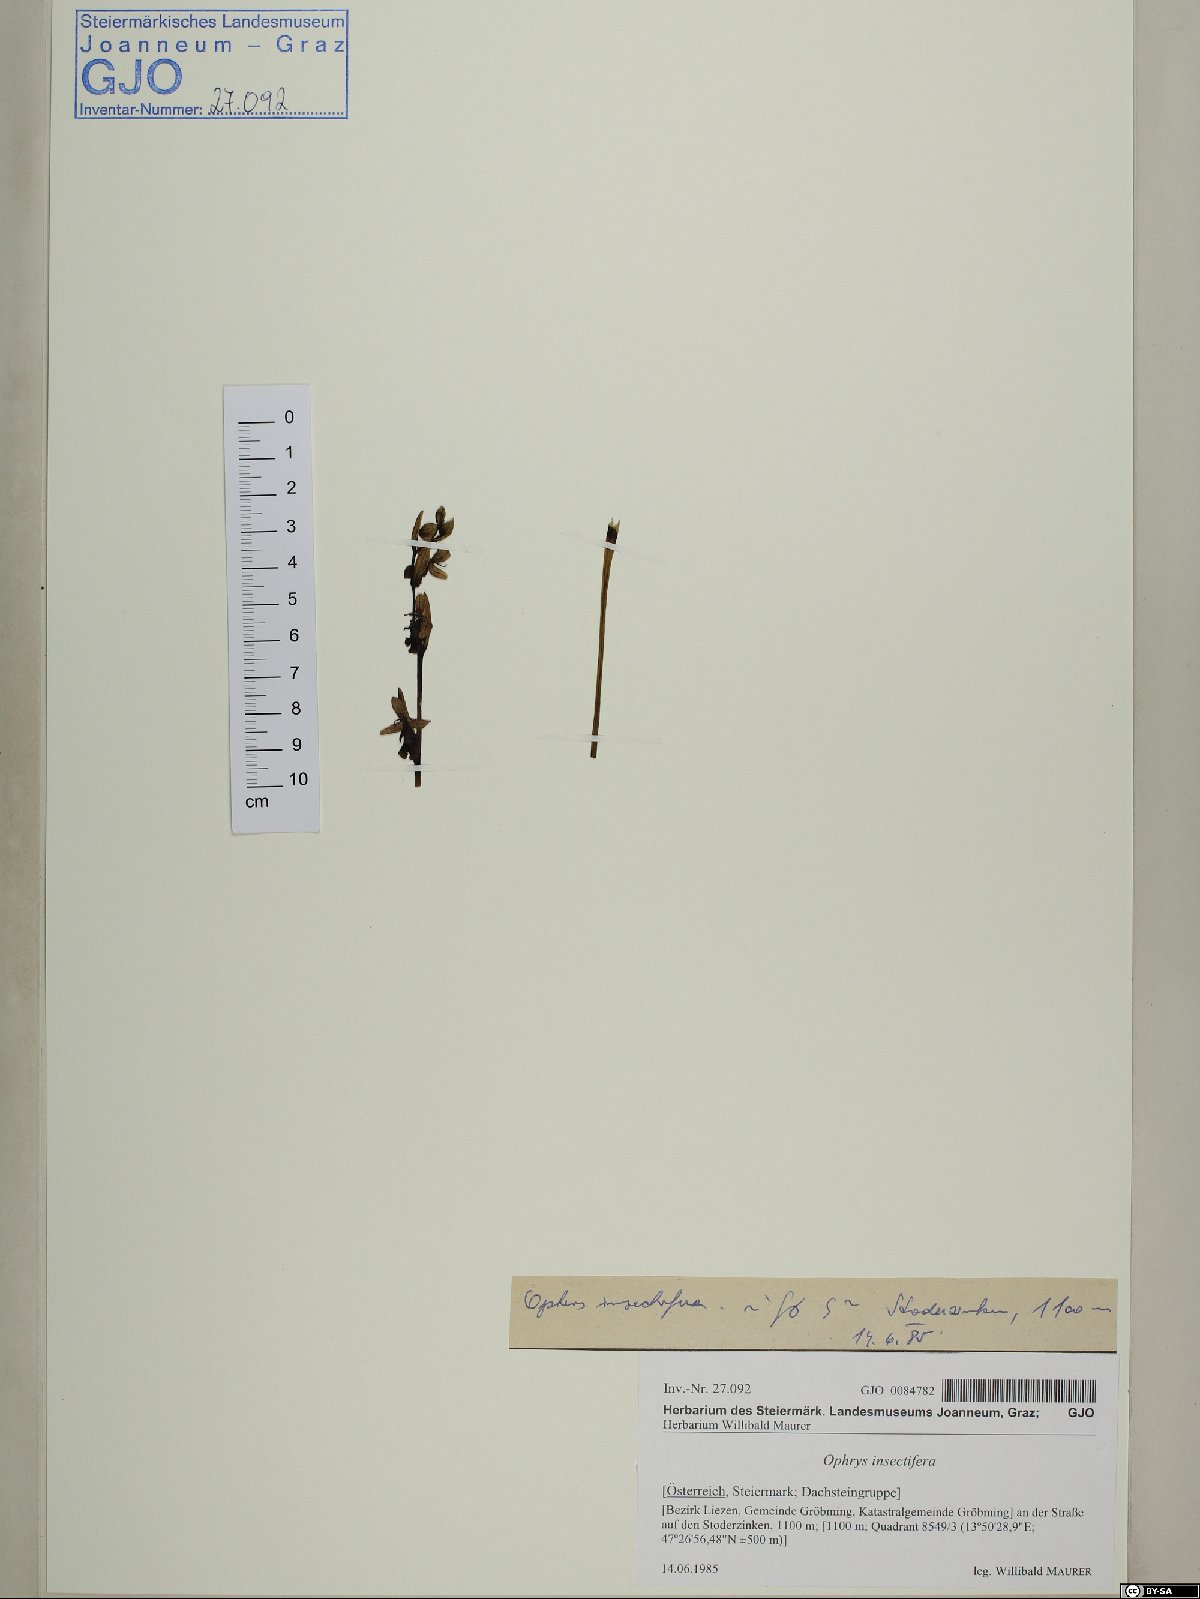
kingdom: Plantae
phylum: Tracheophyta
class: Liliopsida
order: Asparagales
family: Orchidaceae
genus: Ophrys
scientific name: Ophrys insectifera
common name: Fly orchid
